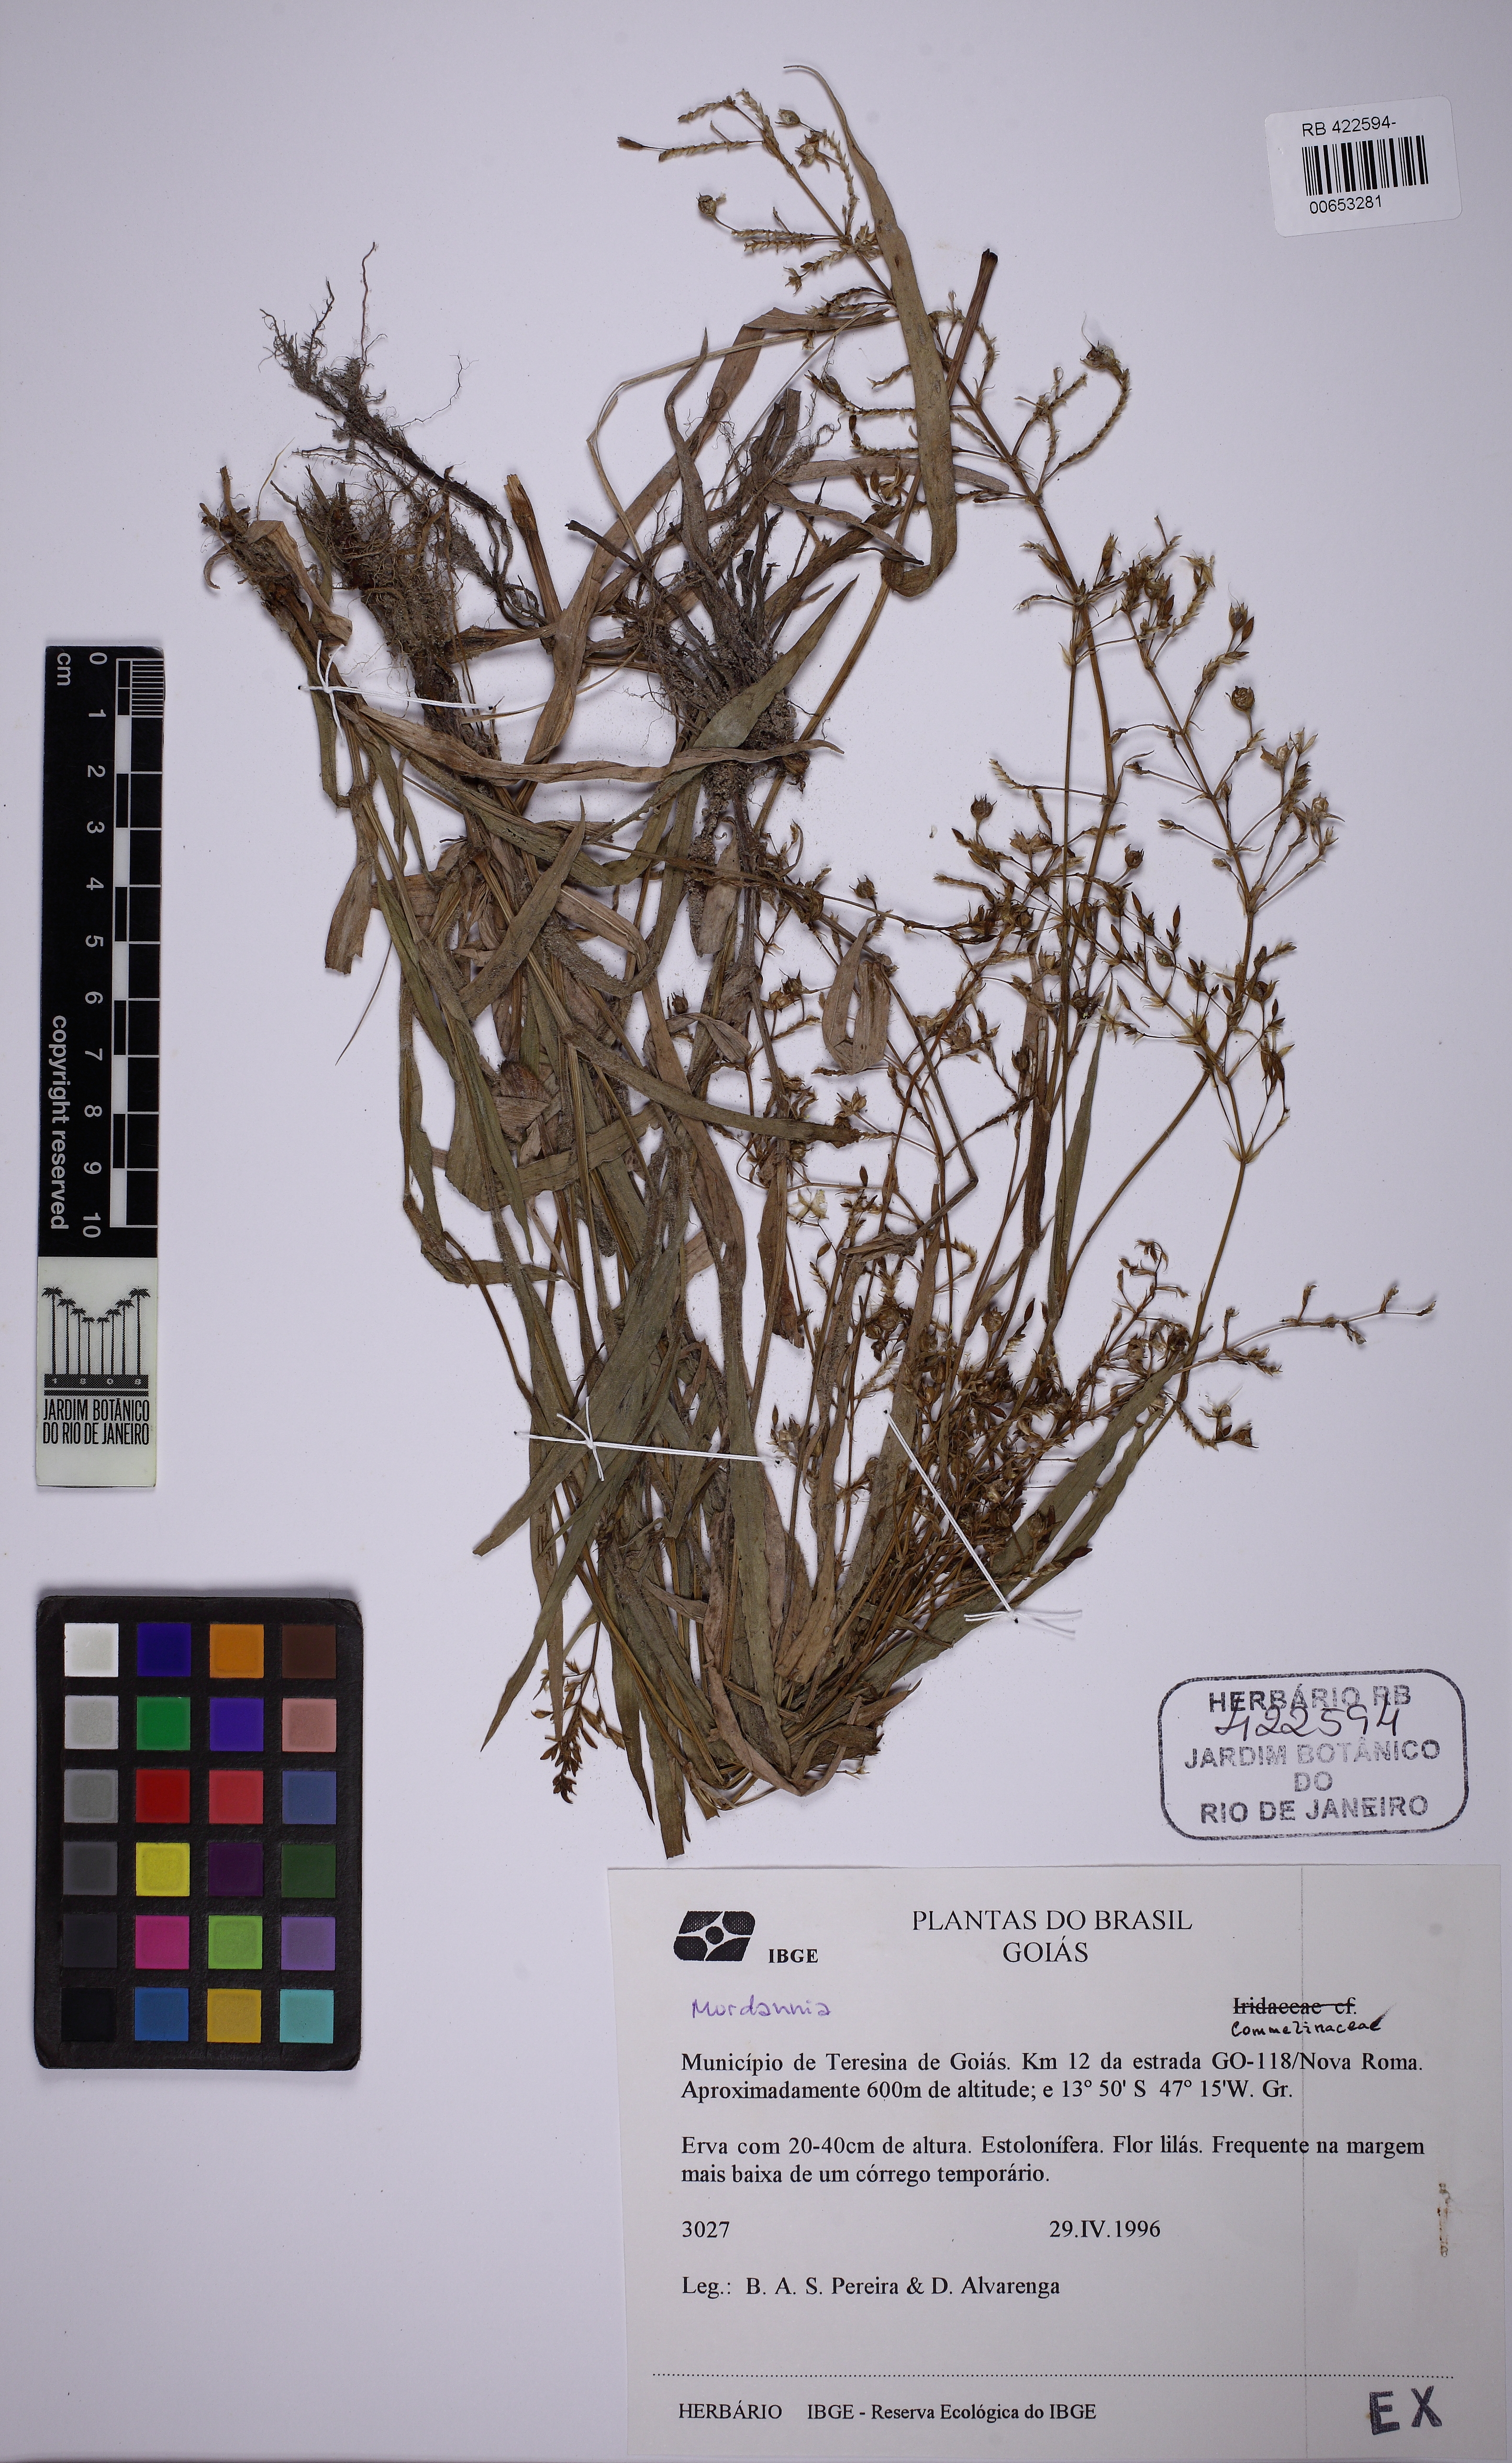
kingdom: Plantae
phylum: Tracheophyta
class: Liliopsida
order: Commelinales
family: Commelinaceae
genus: Murdannia
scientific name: Murdannia gardneri
